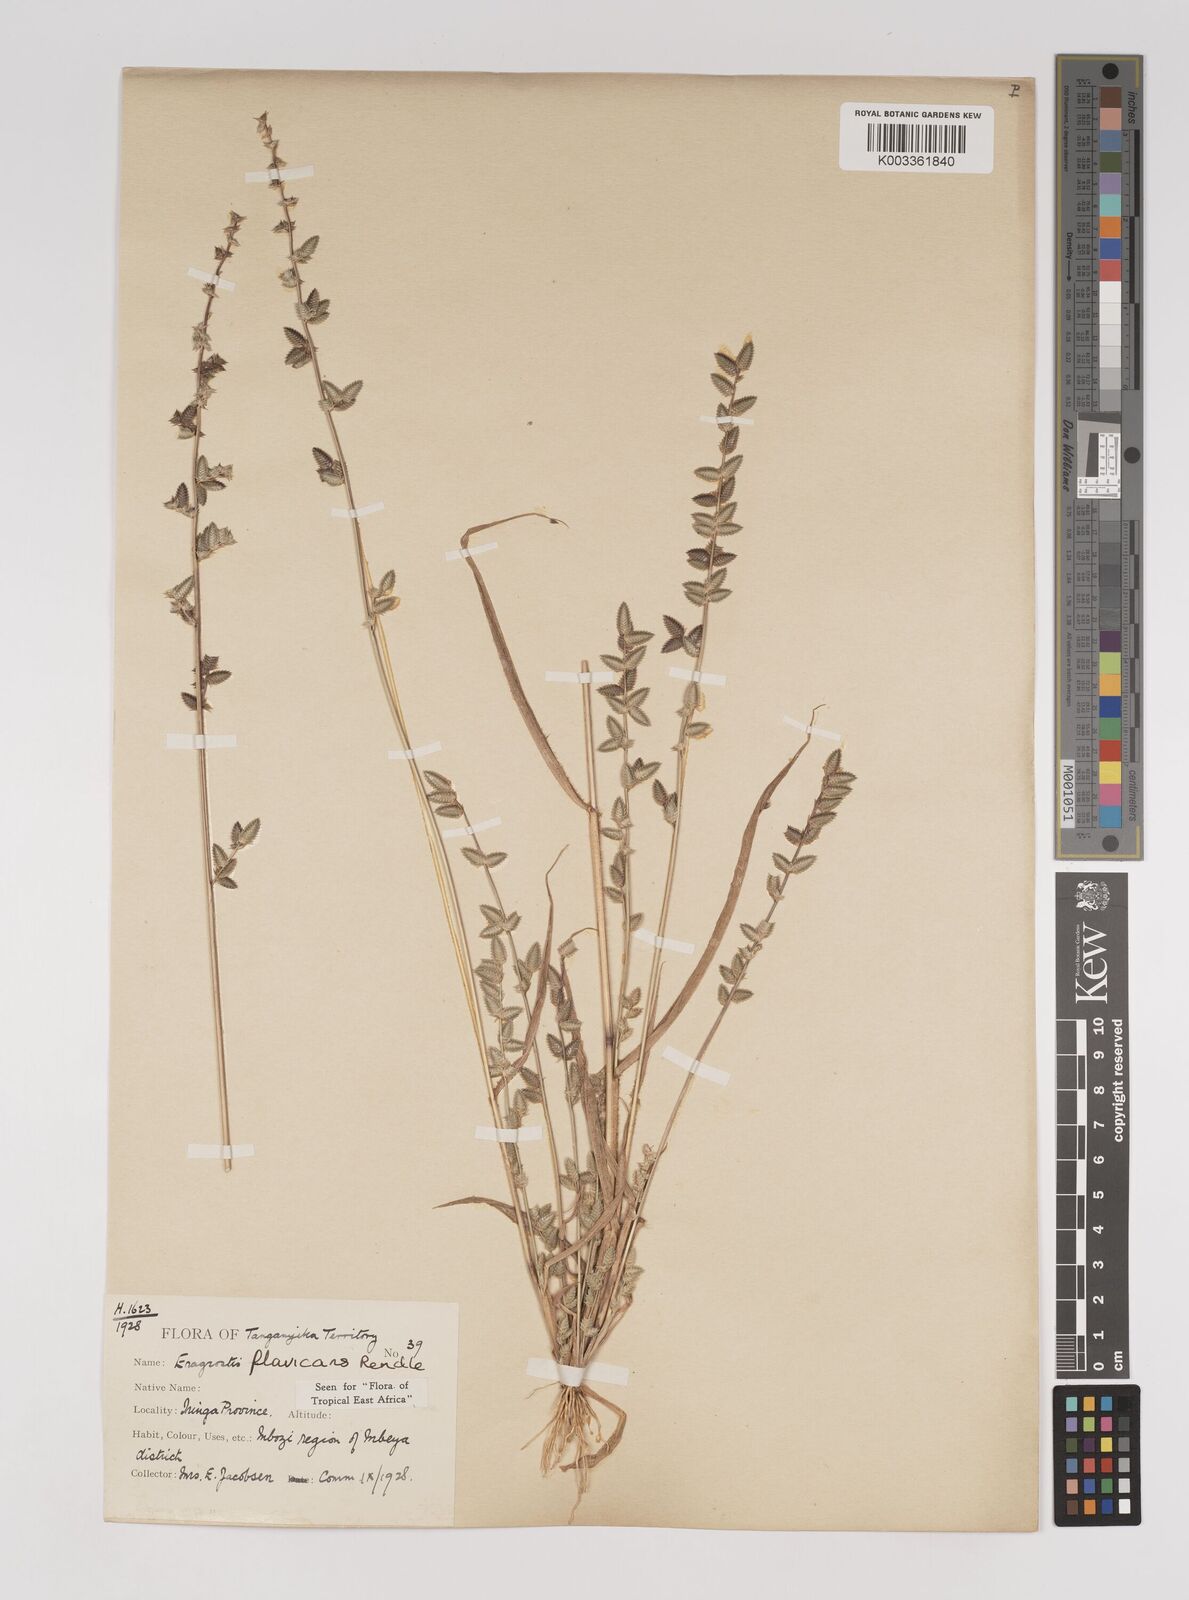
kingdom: Plantae
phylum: Tracheophyta
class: Liliopsida
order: Poales
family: Poaceae
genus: Eragrostis
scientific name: Eragrostis flavicans
